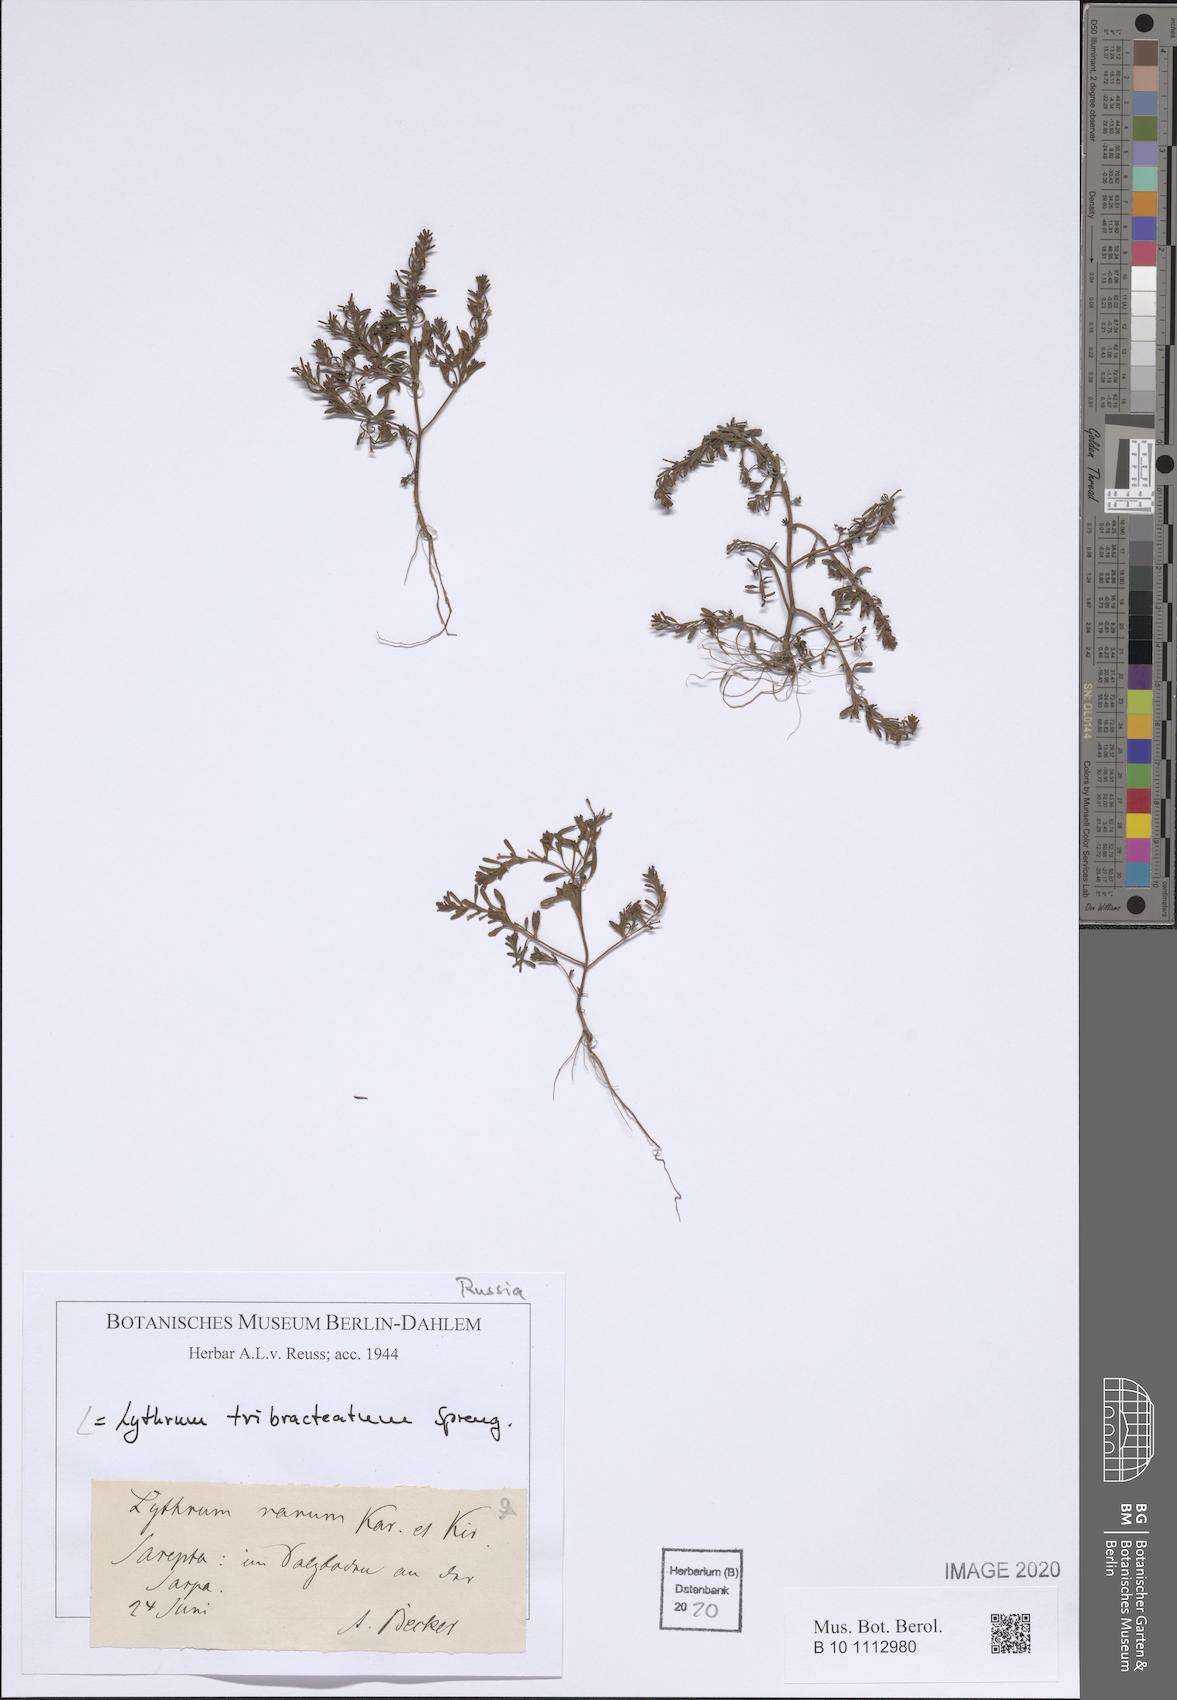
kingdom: Plantae
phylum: Tracheophyta
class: Magnoliopsida
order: Myrtales
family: Lythraceae
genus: Lythrum
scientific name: Lythrum tribracteatum
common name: Threebract loosestrife
